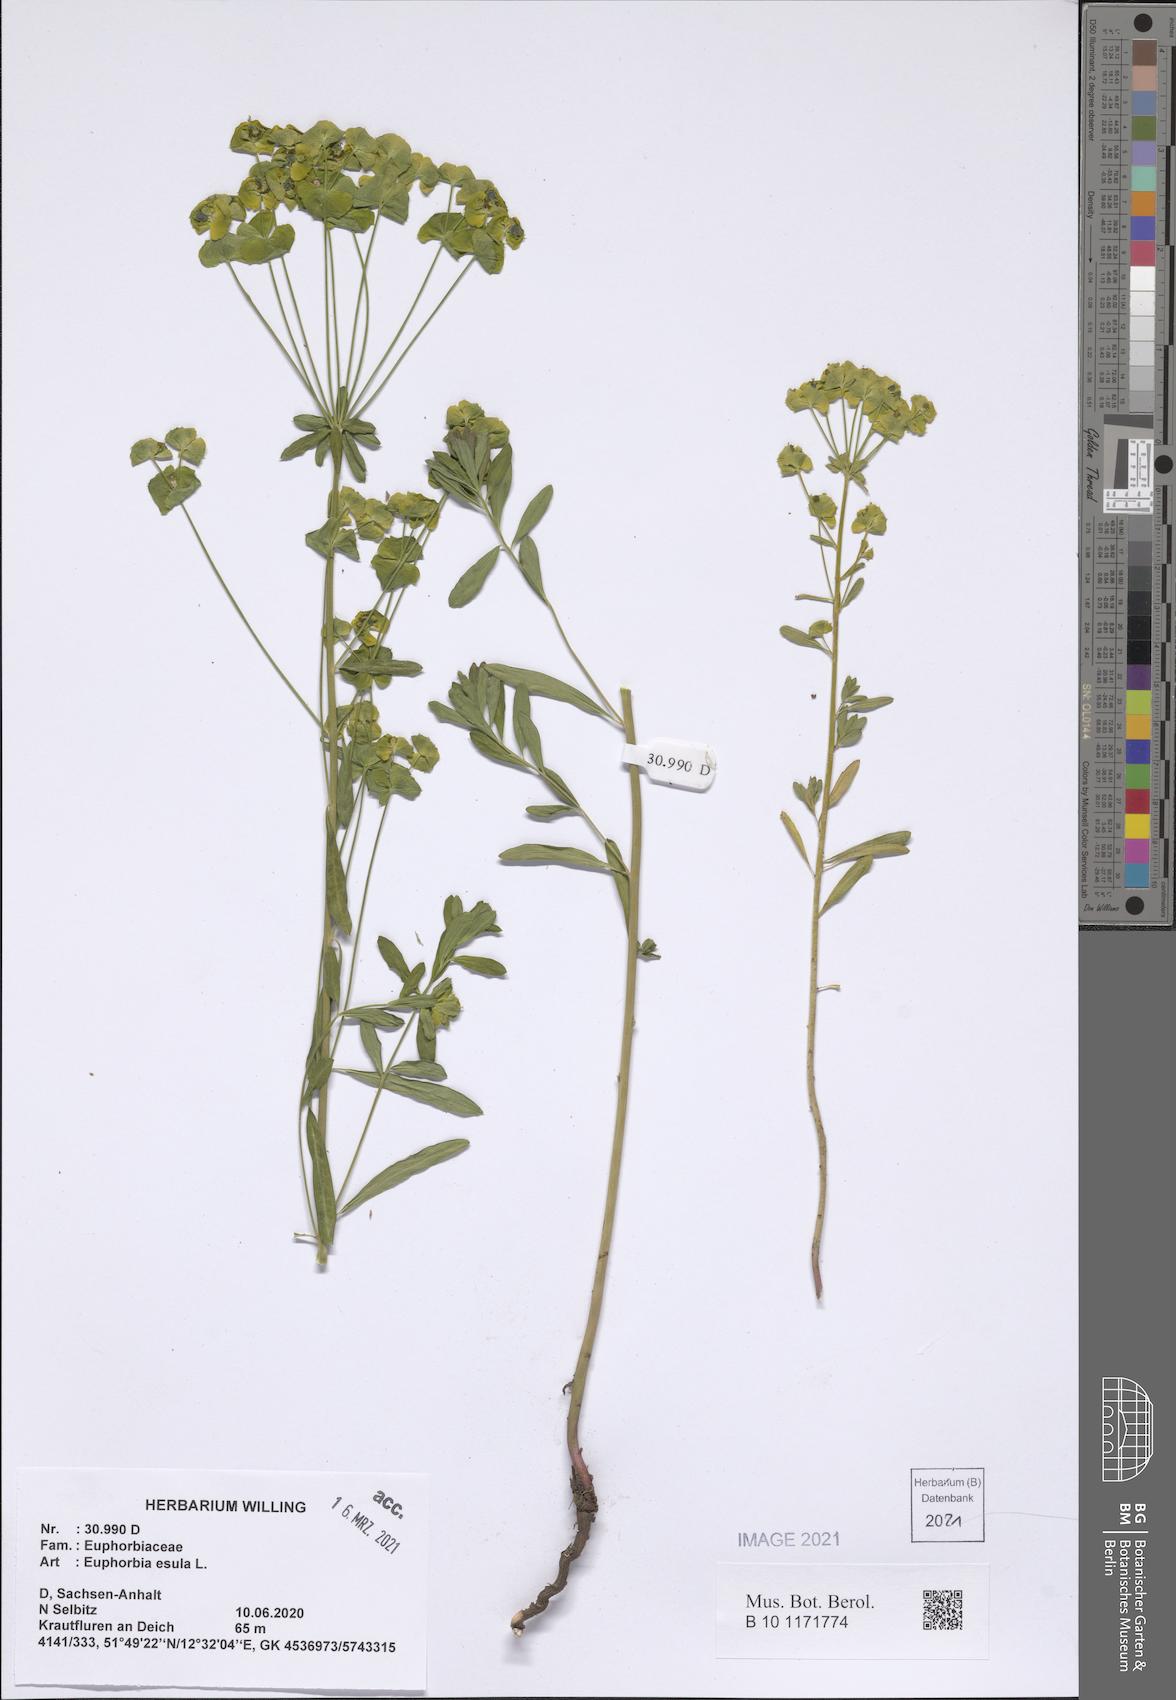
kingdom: Plantae
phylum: Tracheophyta
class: Magnoliopsida
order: Malpighiales
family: Euphorbiaceae
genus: Euphorbia
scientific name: Euphorbia esula
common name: Leafy spurge
